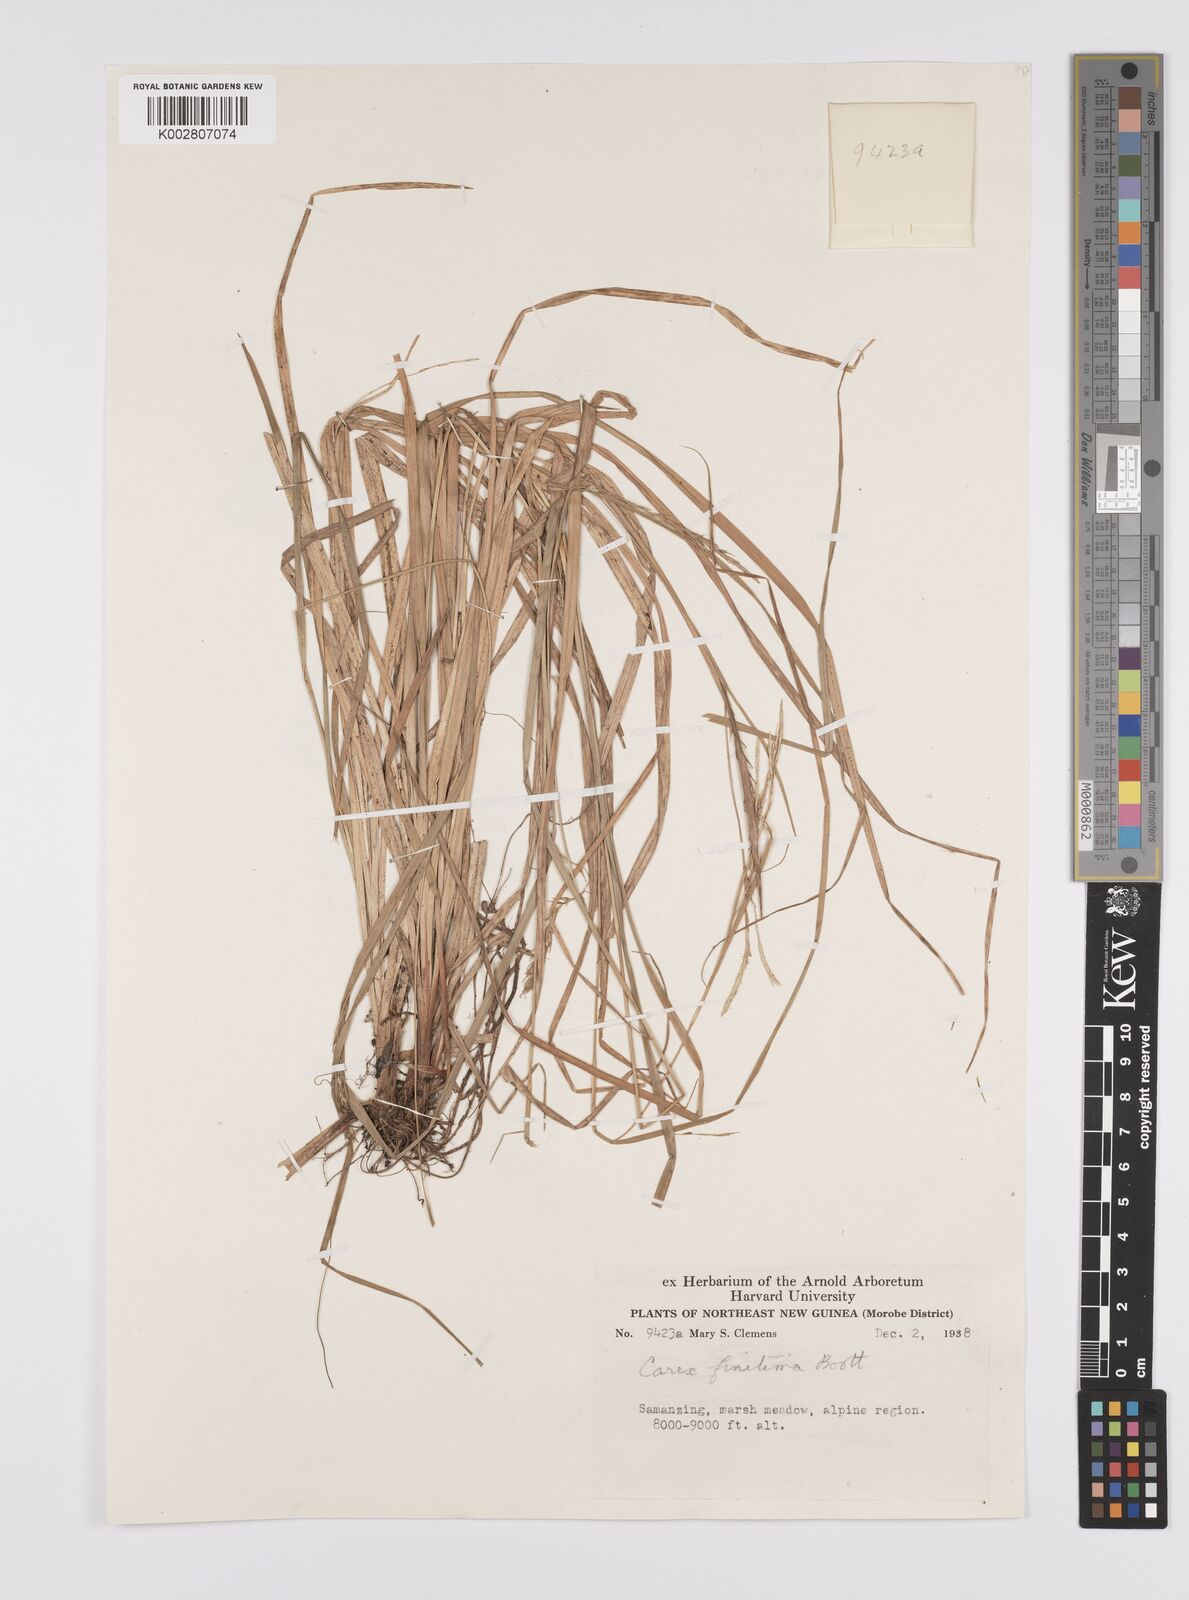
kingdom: Plantae
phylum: Tracheophyta
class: Liliopsida
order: Poales
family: Cyperaceae
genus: Carex
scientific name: Carex finitima
